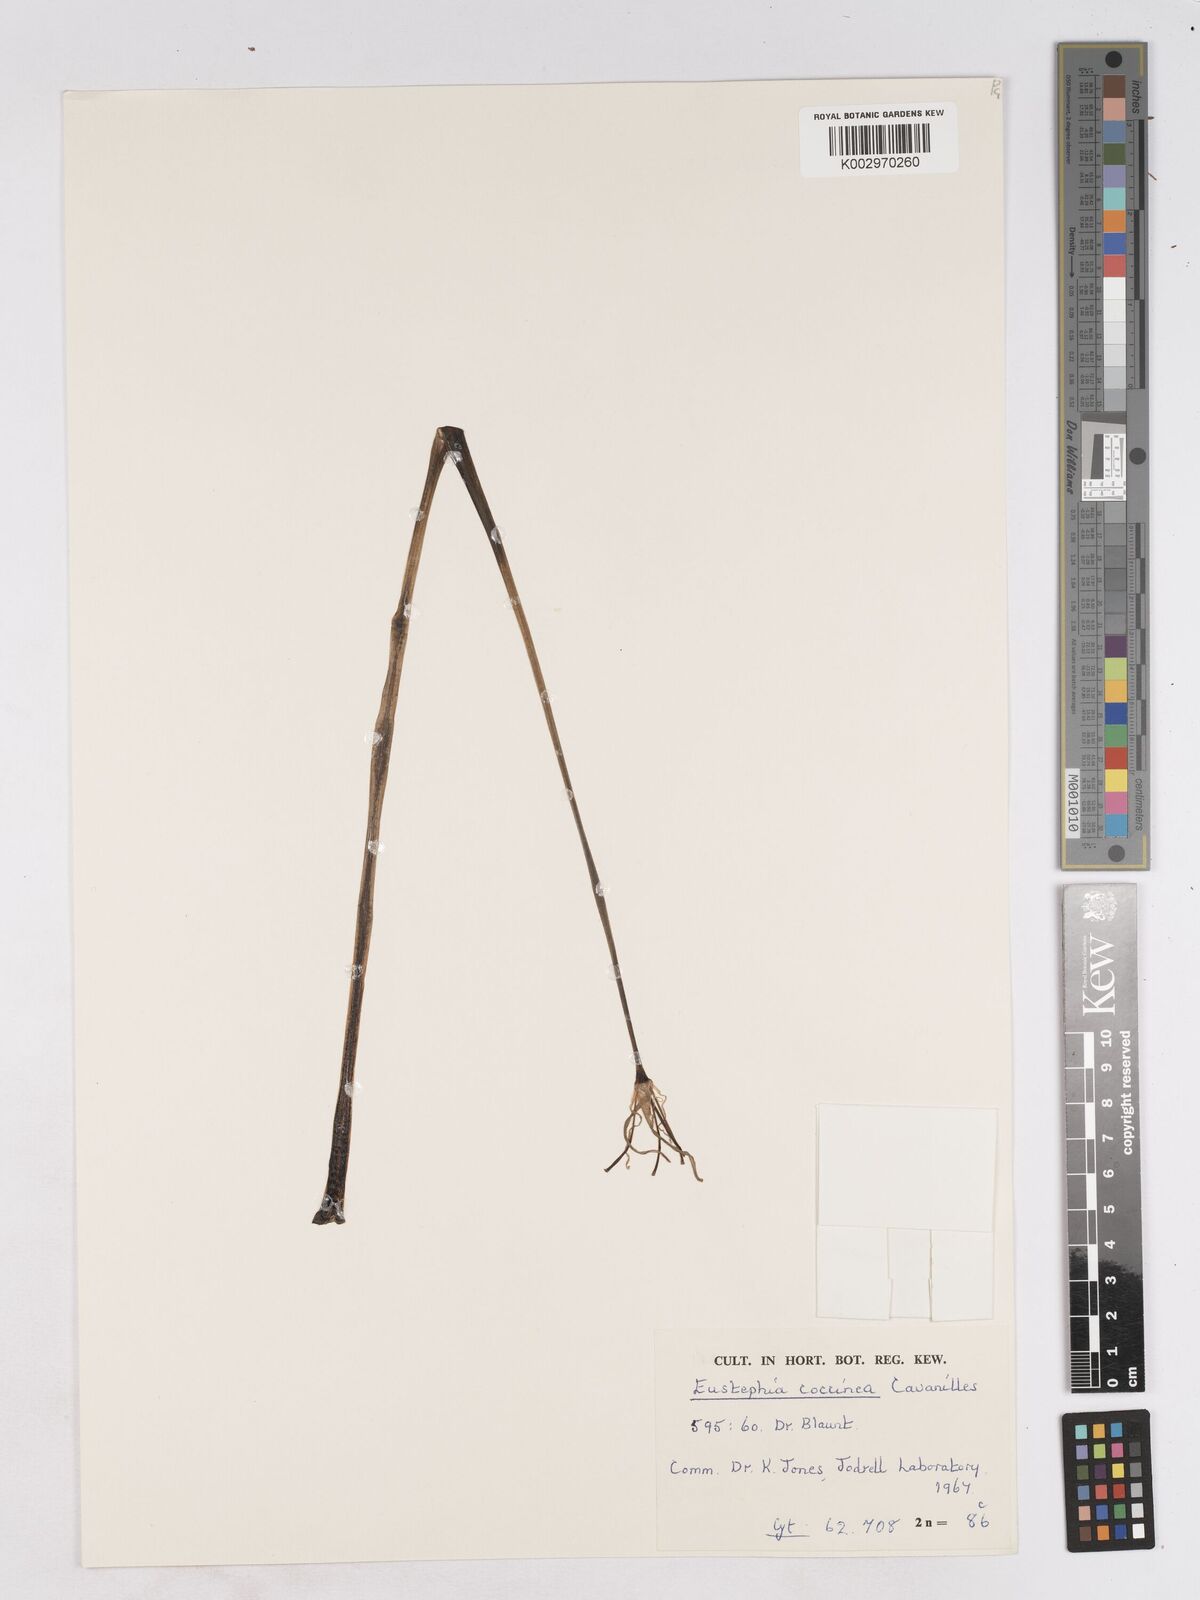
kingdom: Plantae
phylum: Tracheophyta
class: Liliopsida
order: Asparagales
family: Amaryllidaceae
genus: Eustephia
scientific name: Eustephia coccinea
